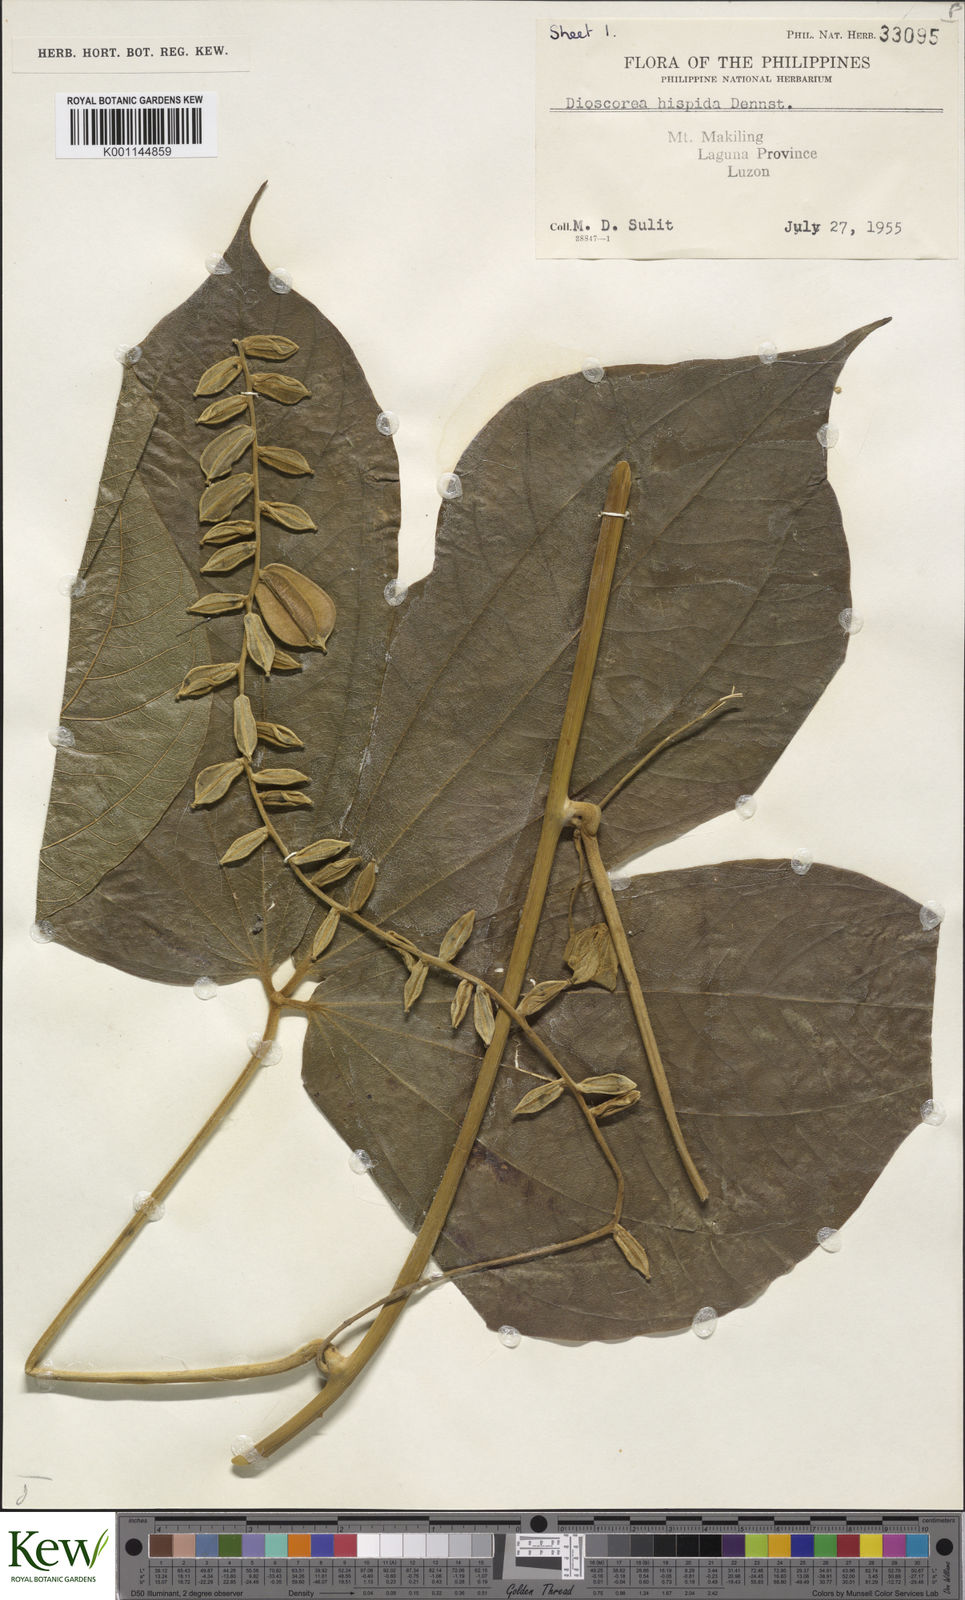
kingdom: Plantae
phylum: Tracheophyta
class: Liliopsida
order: Dioscoreales
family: Dioscoreaceae
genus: Dioscorea
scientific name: Dioscorea hispida
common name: Asiatic bitter yam
